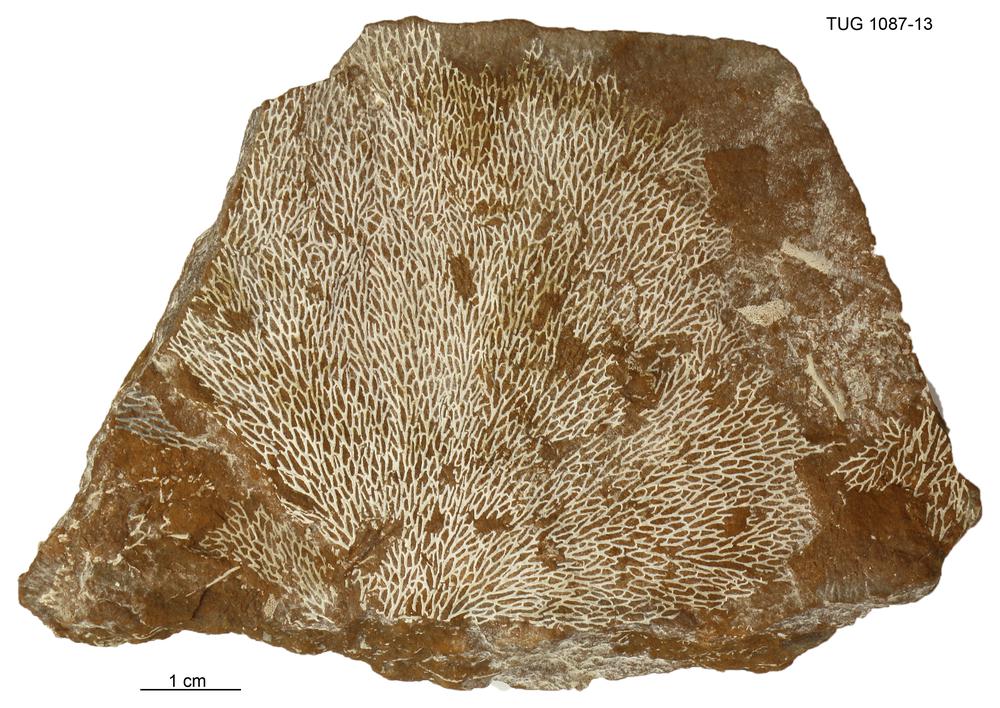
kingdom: Animalia
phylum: Bryozoa
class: Stenolaemata
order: Fenestrida
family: Chasmatoporidae
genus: Chasmatopora
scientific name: Chasmatopora furcata
